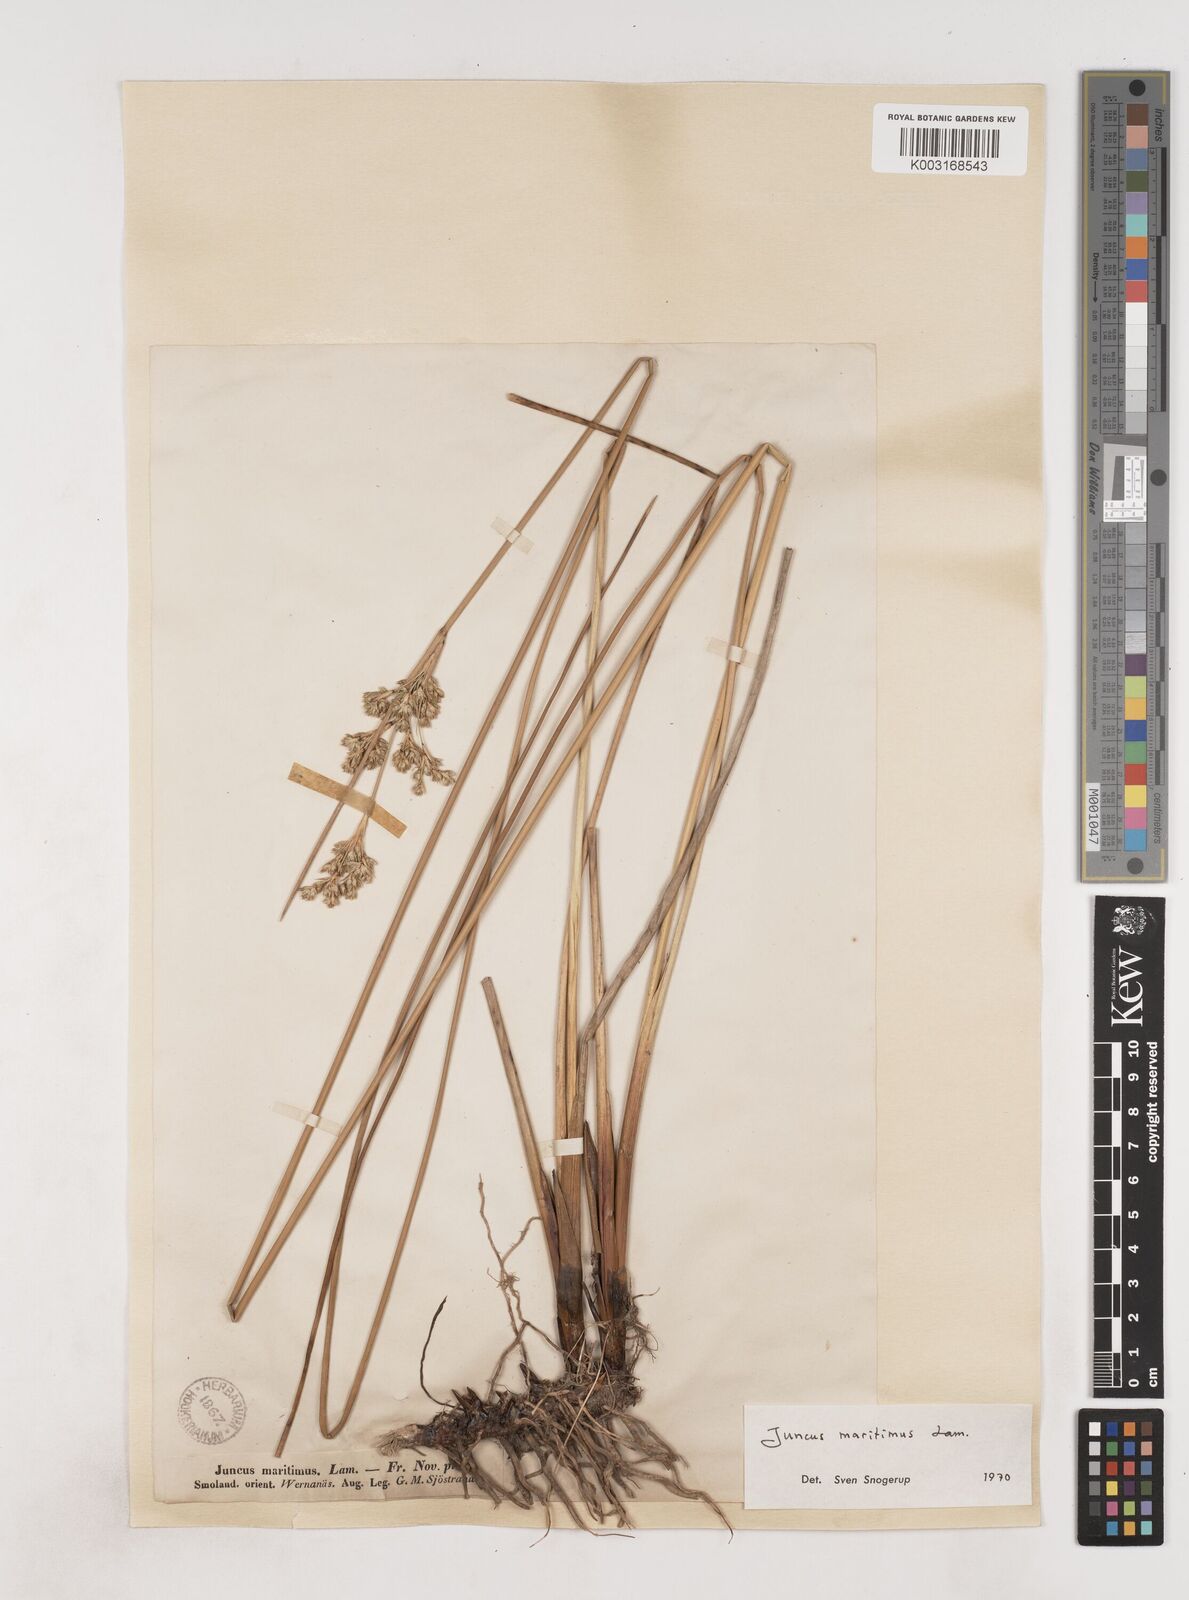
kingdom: Plantae
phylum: Tracheophyta
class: Liliopsida
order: Poales
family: Juncaceae
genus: Juncus
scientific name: Juncus maritimus
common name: Sea rush
